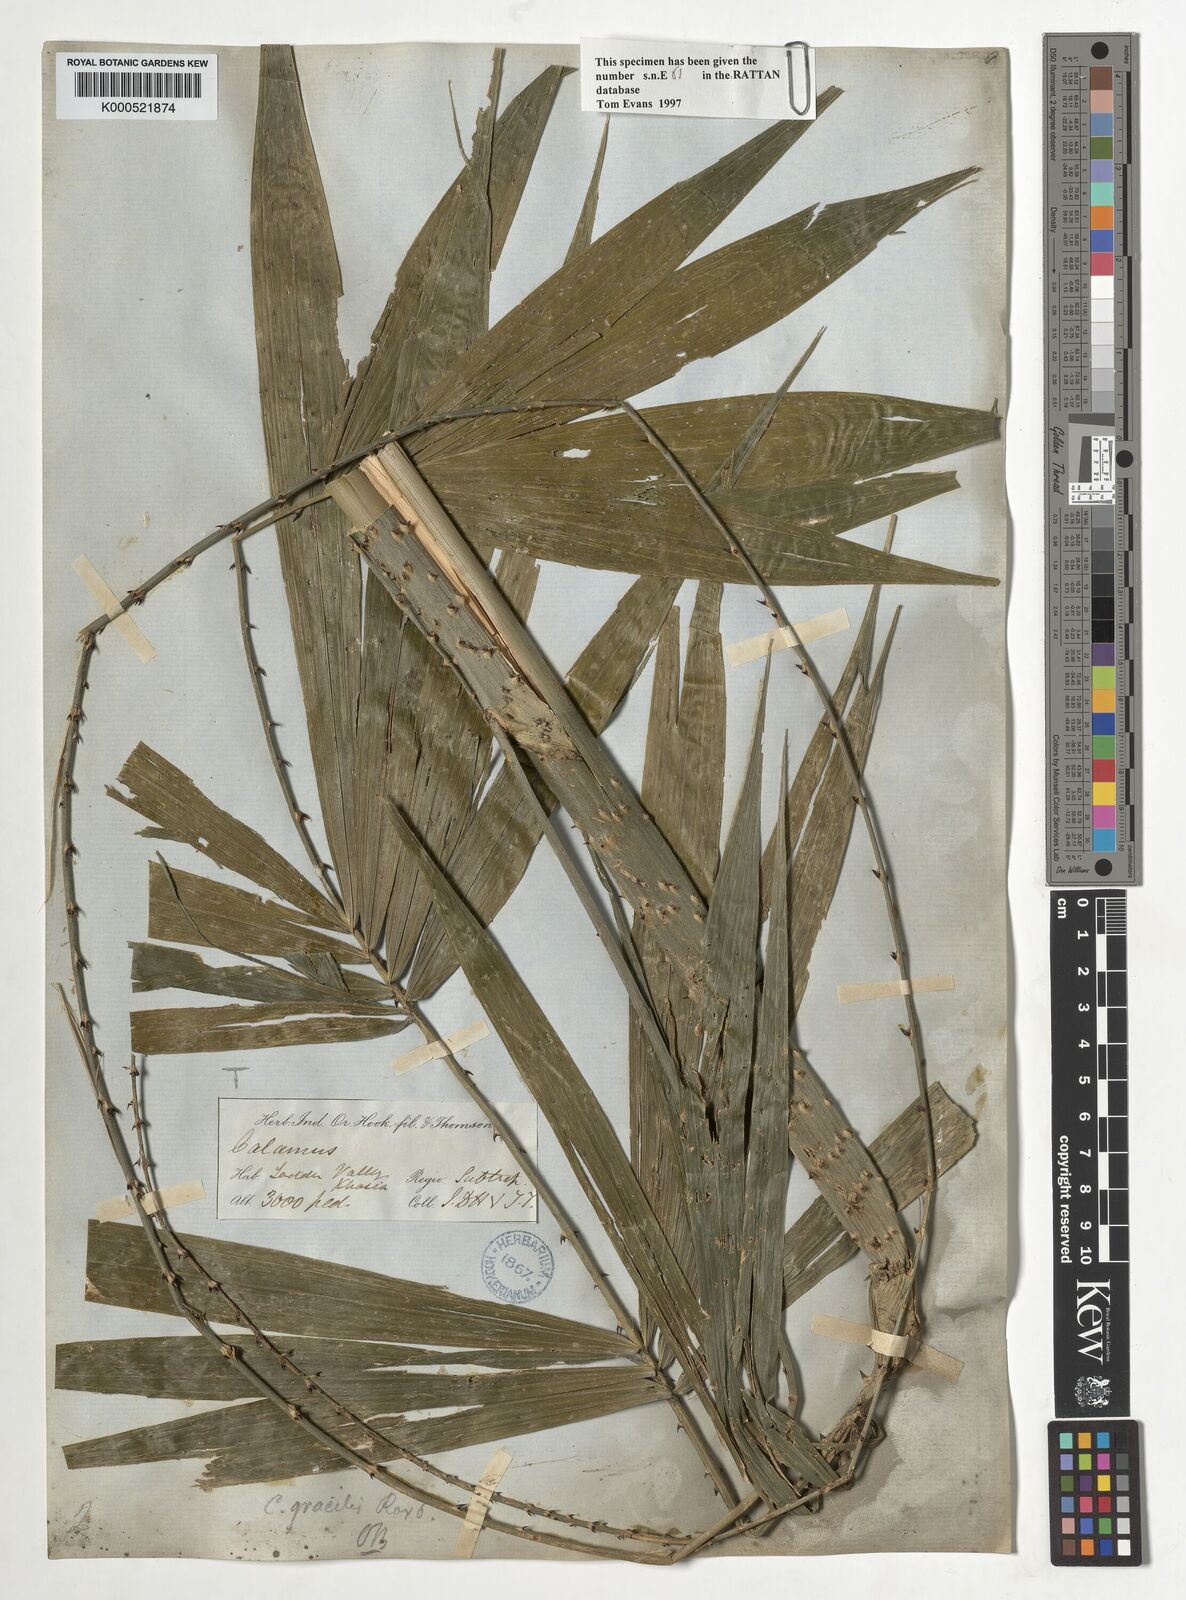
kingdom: Plantae
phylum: Tracheophyta
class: Liliopsida
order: Arecales
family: Arecaceae
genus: Calamus
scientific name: Calamus gracilis
